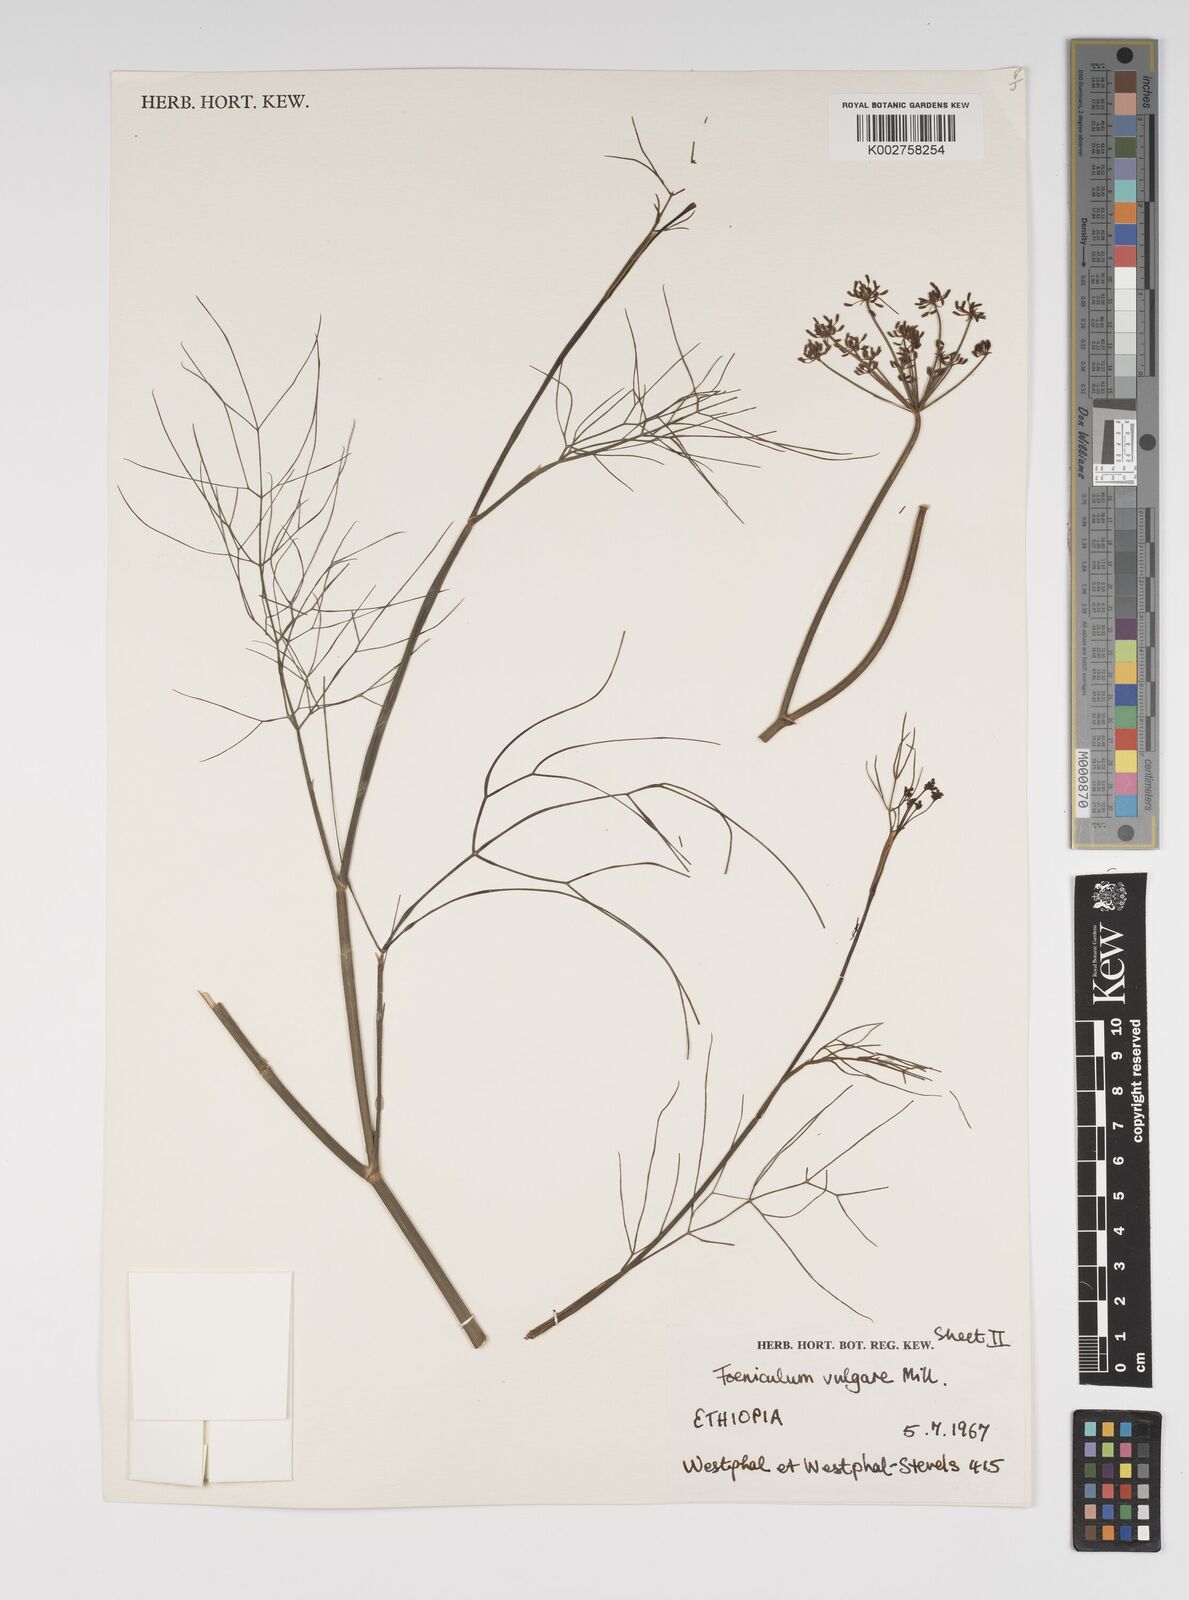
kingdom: Plantae
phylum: Tracheophyta
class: Magnoliopsida
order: Apiales
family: Apiaceae
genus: Foeniculum
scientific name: Foeniculum vulgare
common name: Fennel
